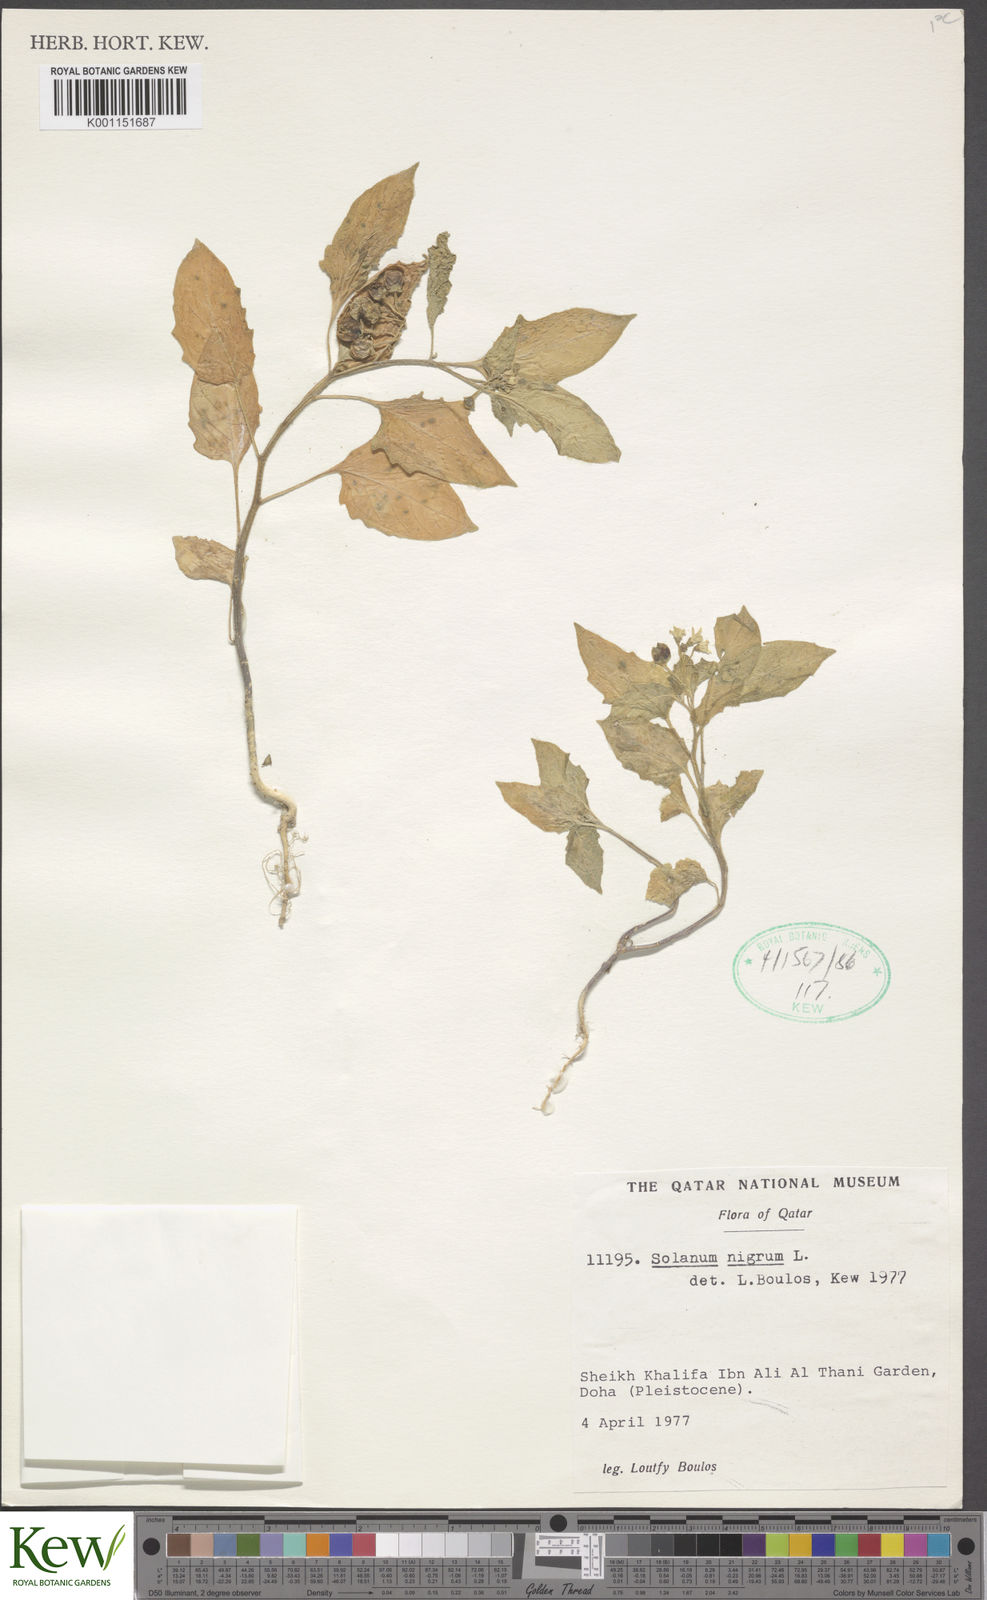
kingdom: Plantae
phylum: Tracheophyta
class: Magnoliopsida
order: Solanales
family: Solanaceae
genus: Solanum
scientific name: Solanum nigrum
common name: Black nightshade
